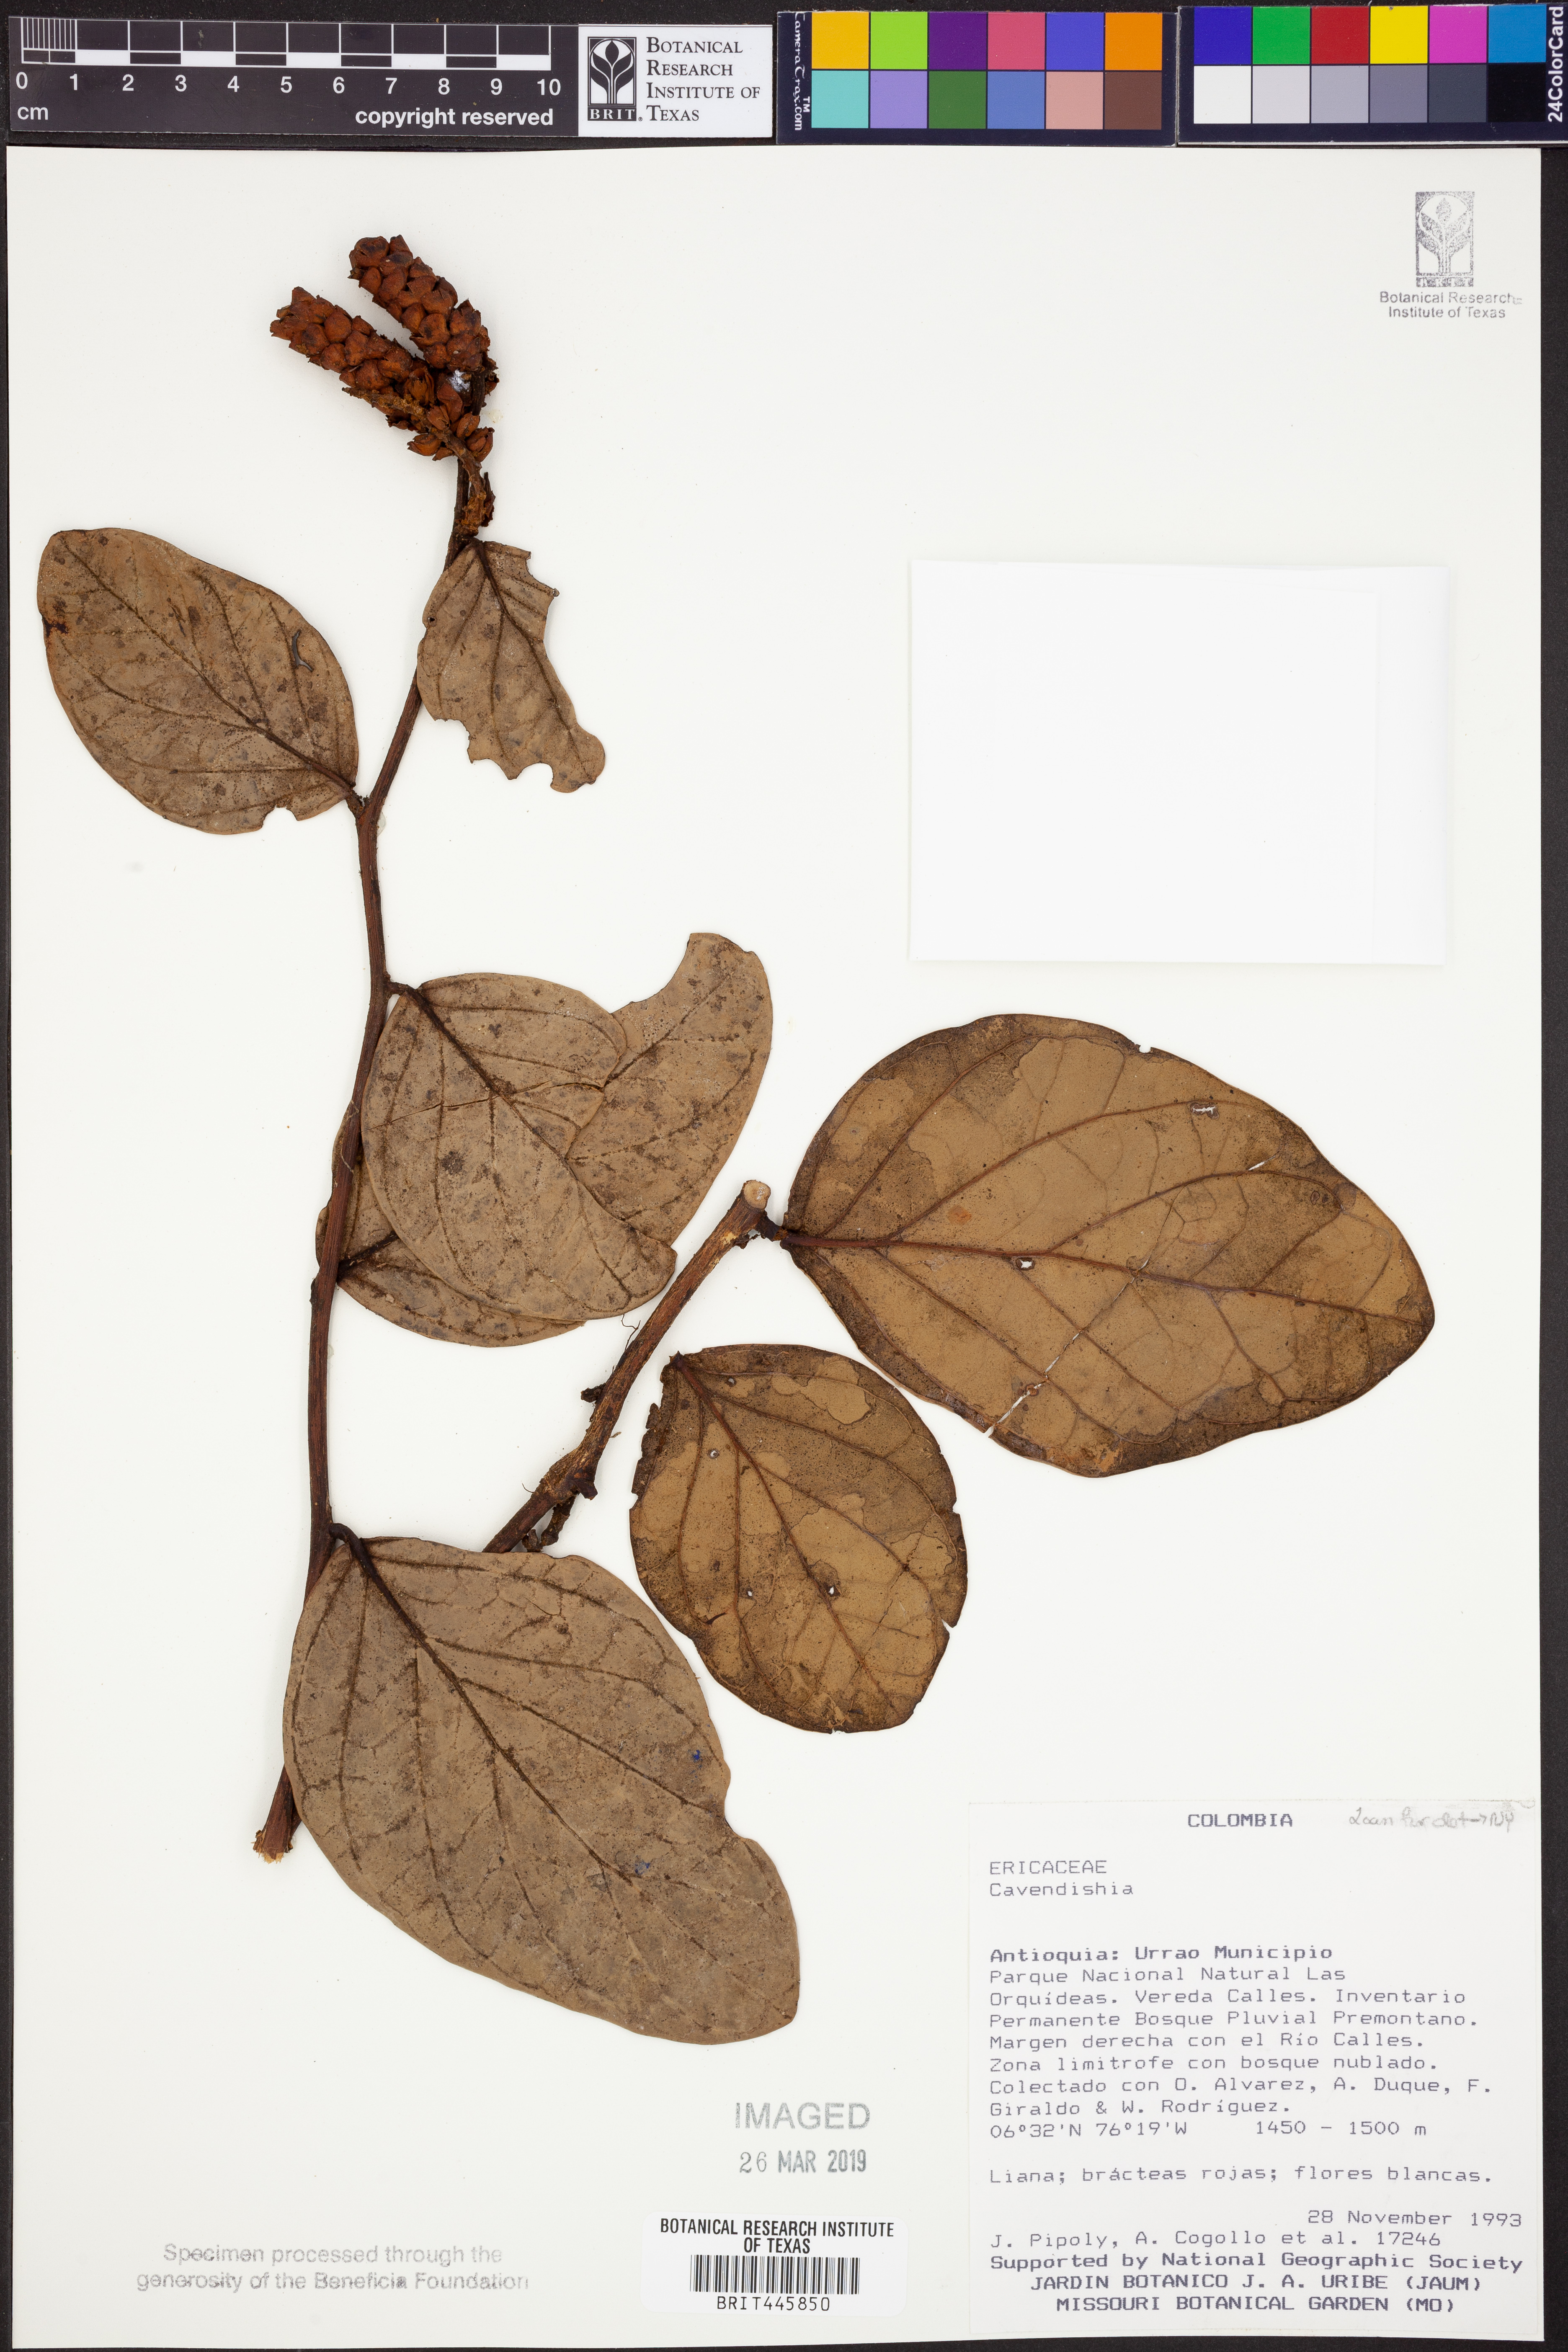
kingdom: Plantae
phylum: Tracheophyta
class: Magnoliopsida
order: Ericales
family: Ericaceae
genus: Cavendishia
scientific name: Cavendishia
